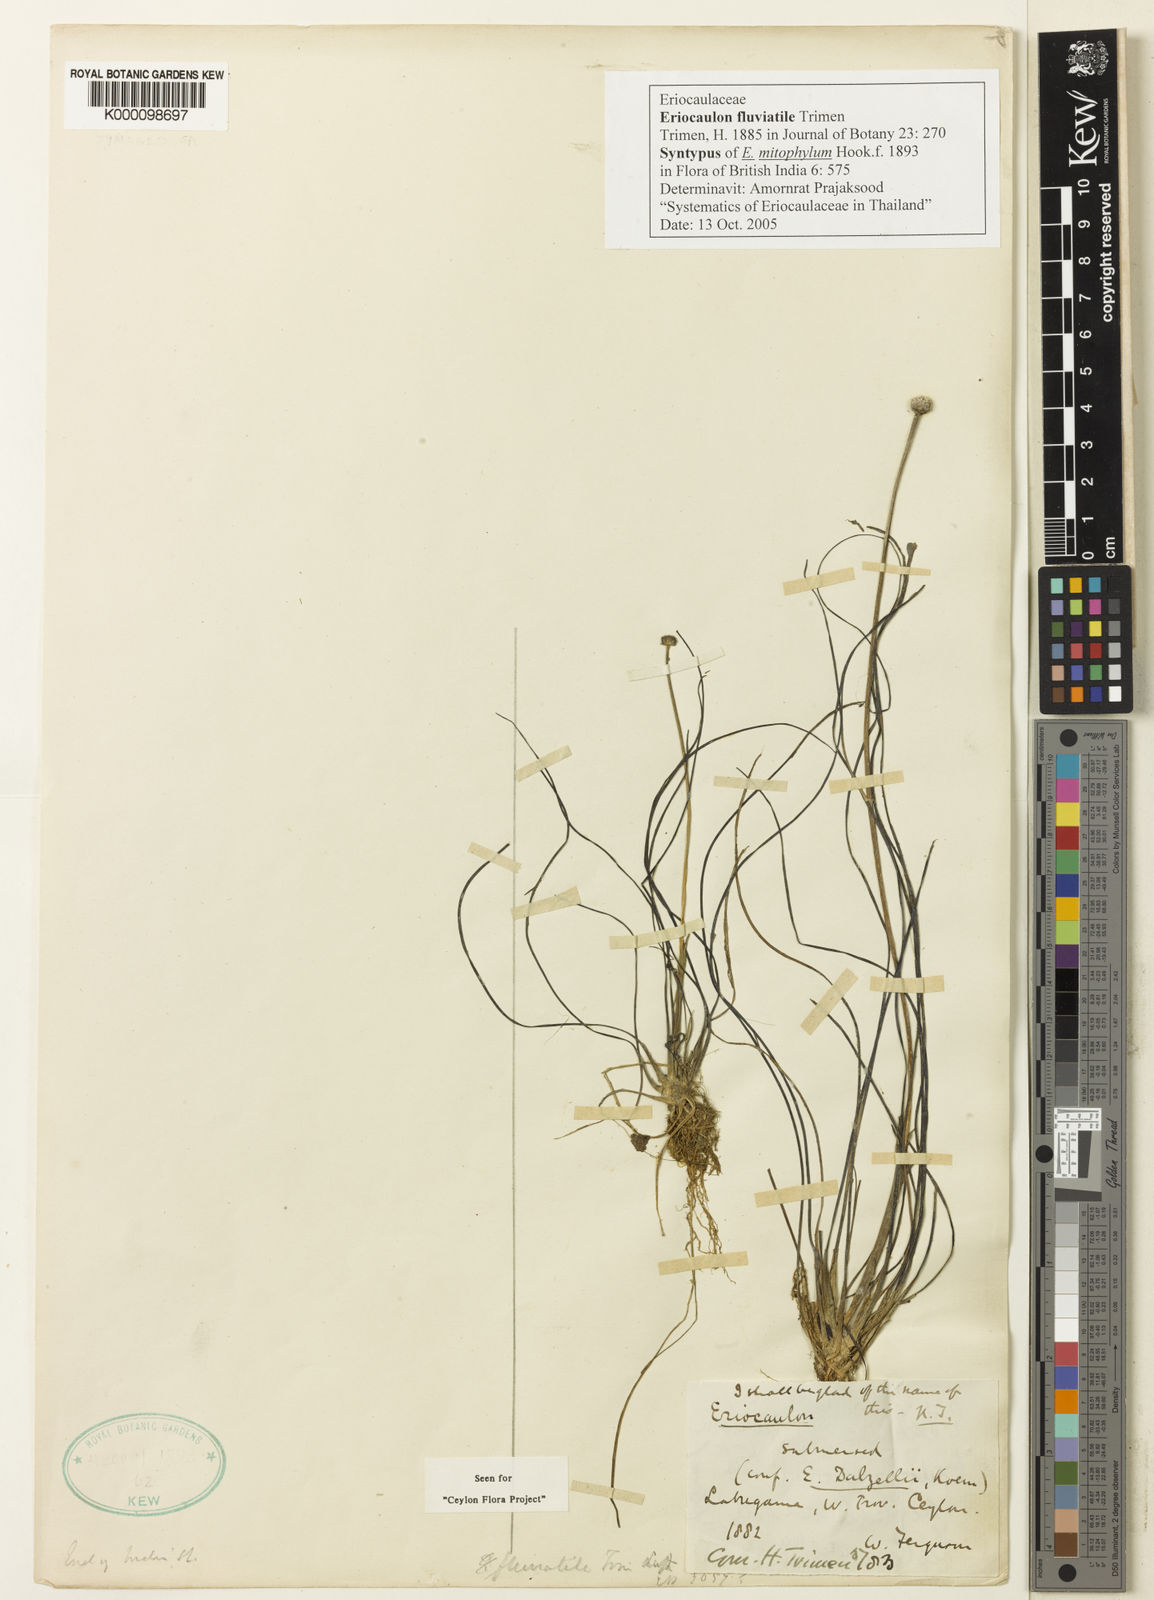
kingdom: Plantae
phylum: Tracheophyta
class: Liliopsida
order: Poales
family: Eriocaulaceae
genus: Eriocaulon
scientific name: Eriocaulon fluviatile
